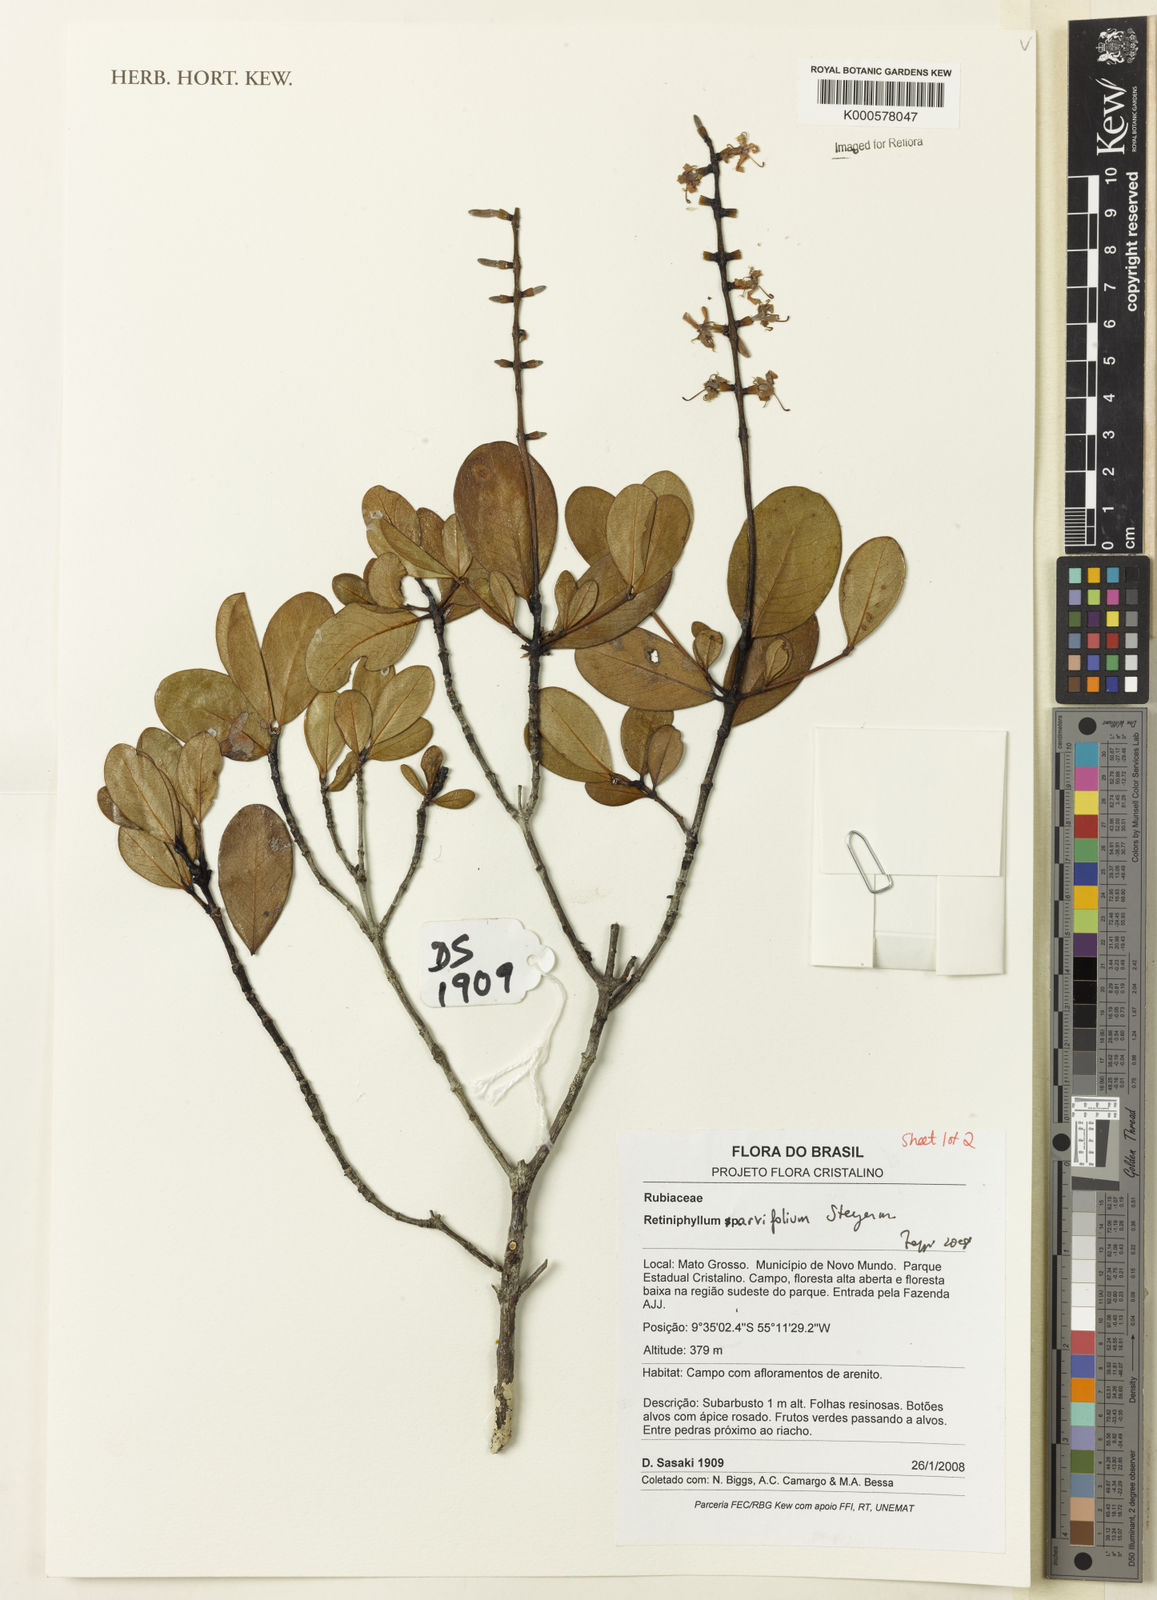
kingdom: Plantae
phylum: Tracheophyta
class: Magnoliopsida
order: Gentianales
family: Rubiaceae
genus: Retiniphyllum
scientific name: Retiniphyllum parvifolium
